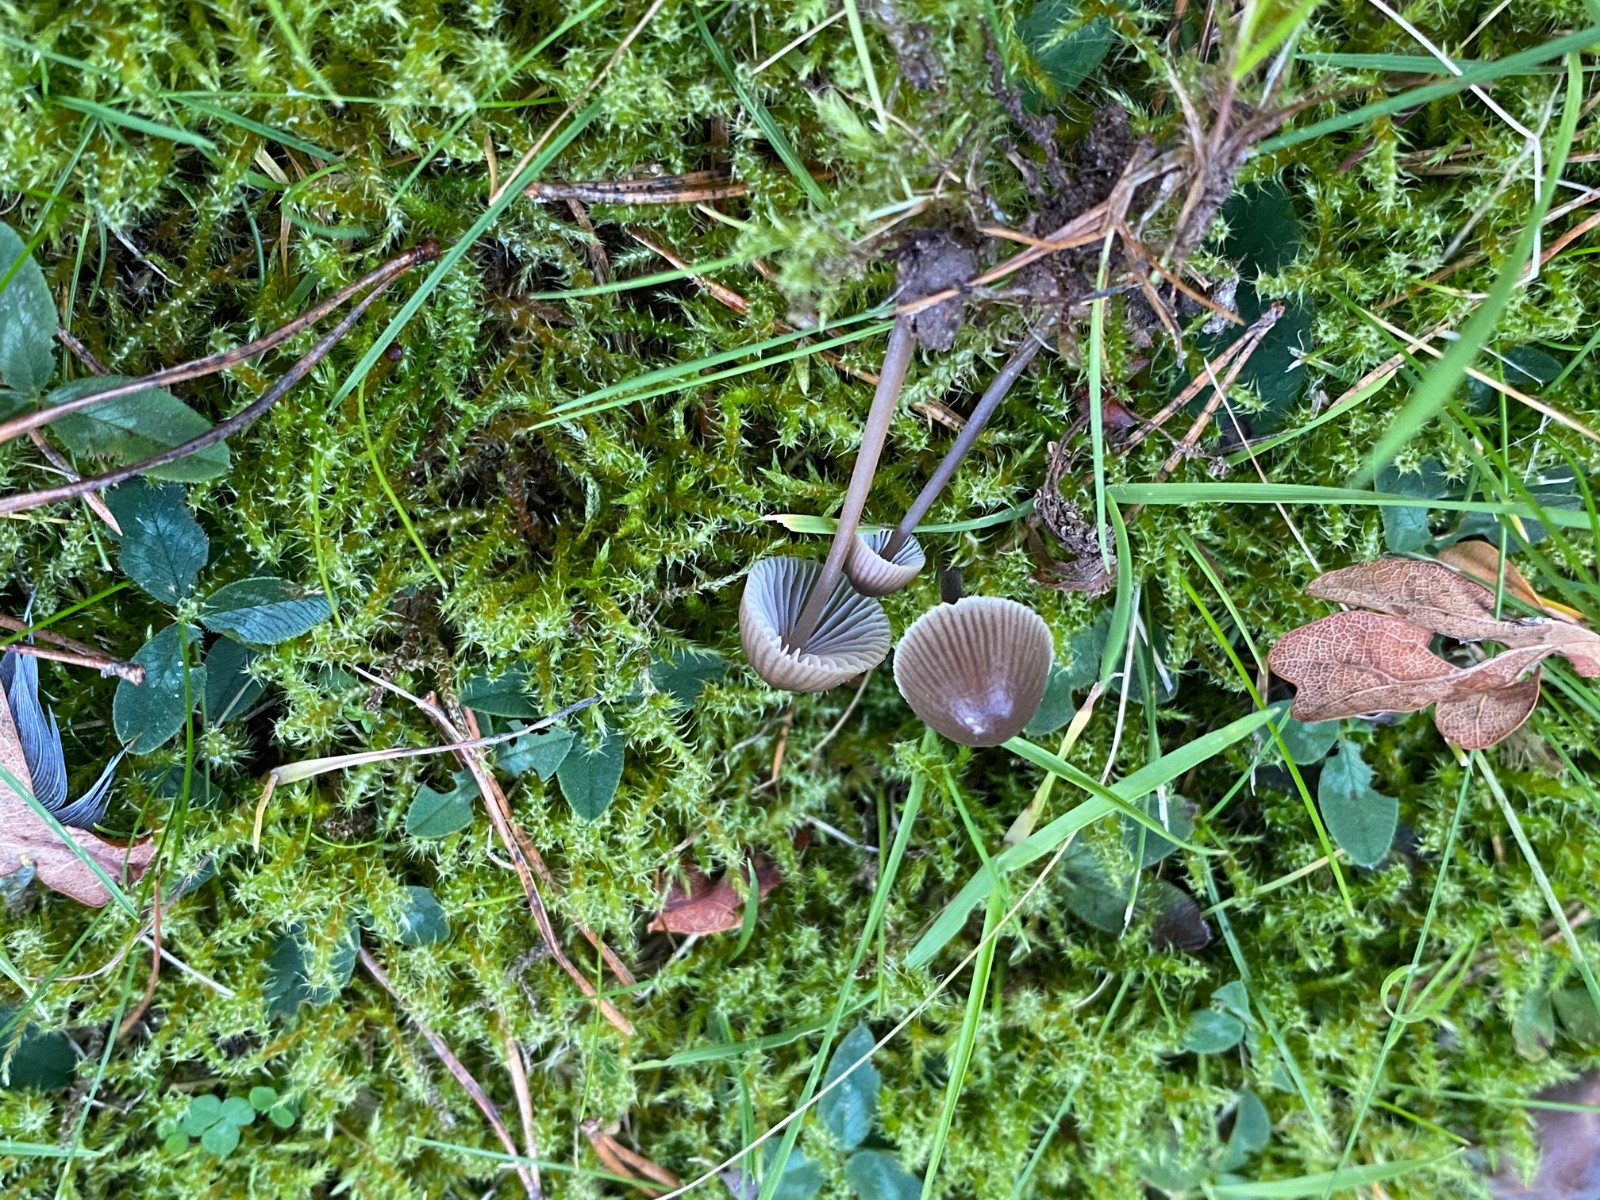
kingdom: Fungi
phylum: Basidiomycota
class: Agaricomycetes
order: Agaricales
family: Mycenaceae
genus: Mycena
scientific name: Mycena leptocephala
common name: klor-huesvamp
